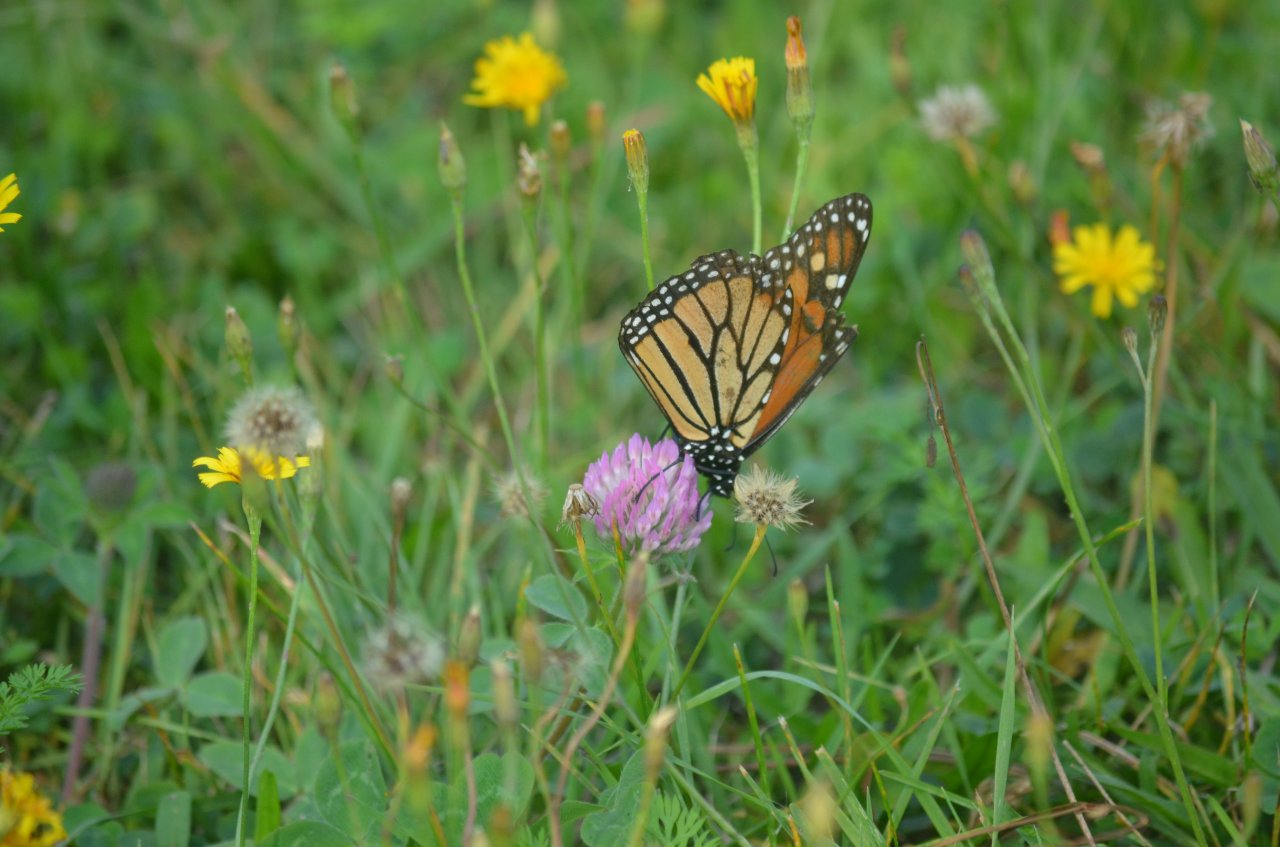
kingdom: Animalia
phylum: Arthropoda
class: Insecta
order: Lepidoptera
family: Nymphalidae
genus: Danaus
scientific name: Danaus plexippus
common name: Monarch
